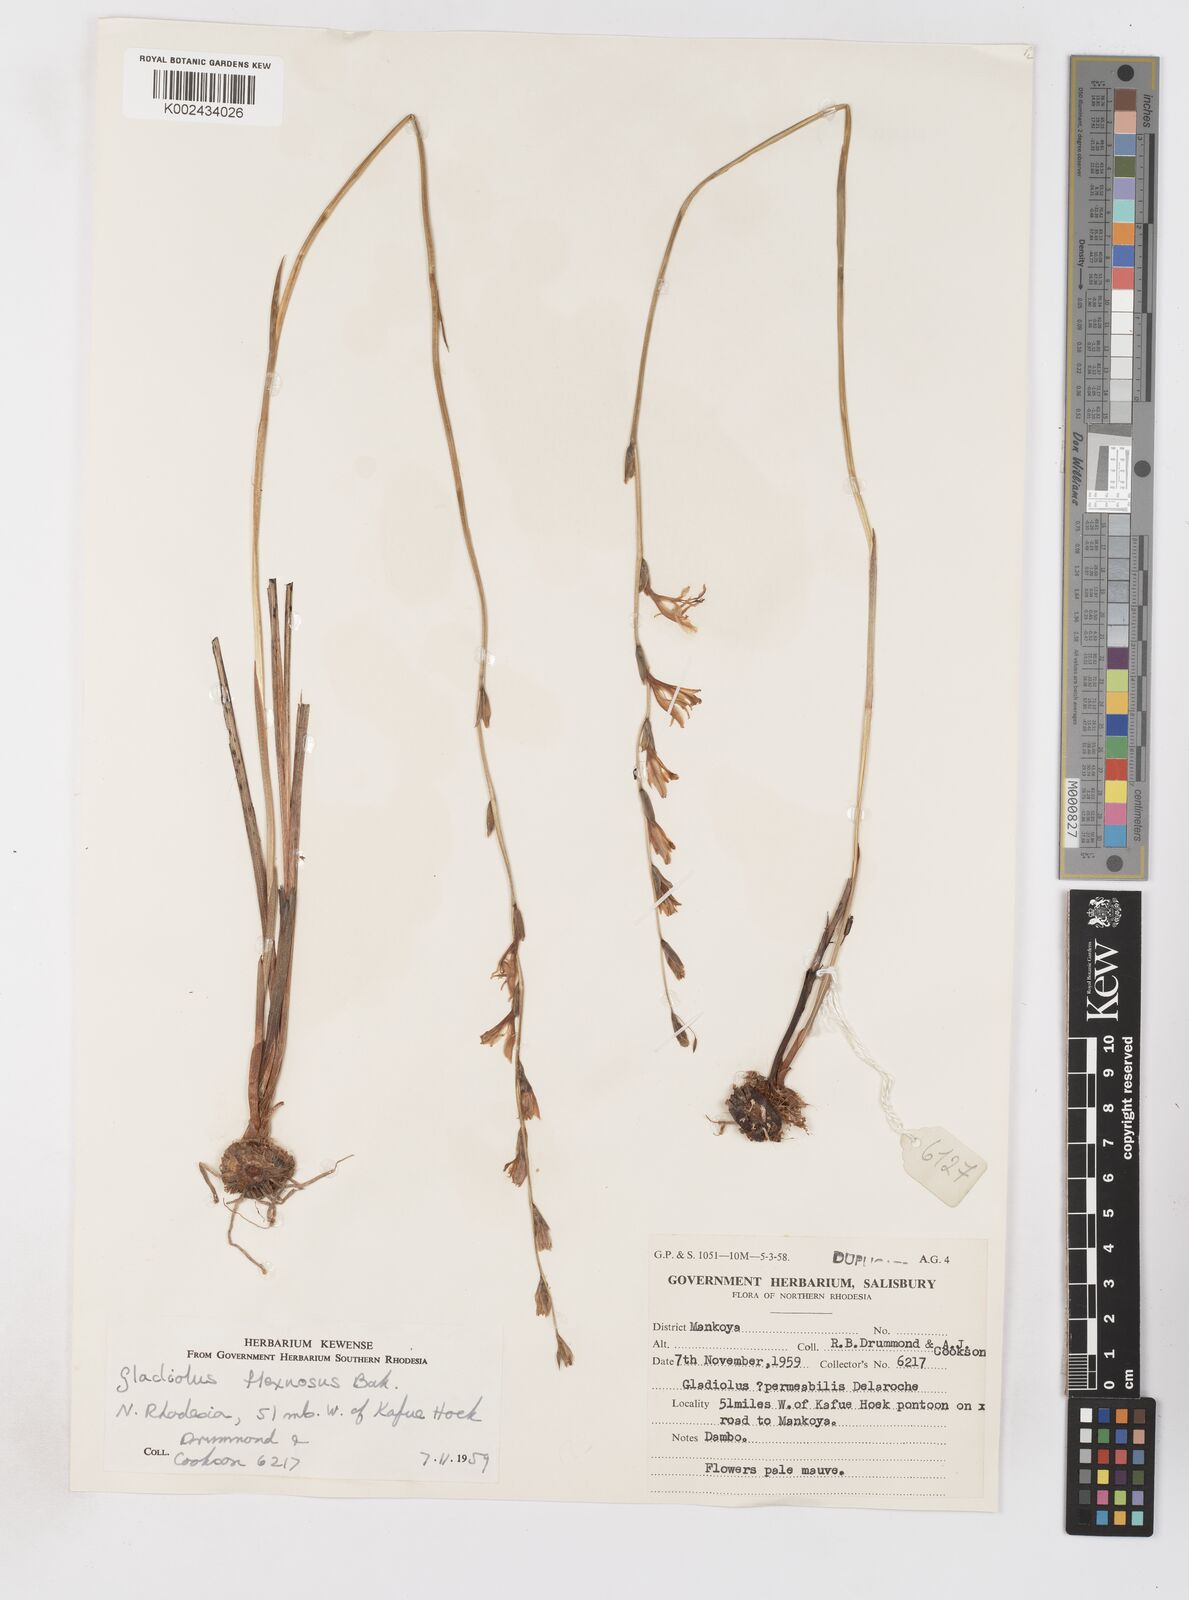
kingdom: Plantae
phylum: Tracheophyta
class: Liliopsida
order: Asparagales
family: Iridaceae
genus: Gladiolus
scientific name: Gladiolus atropurpureus
